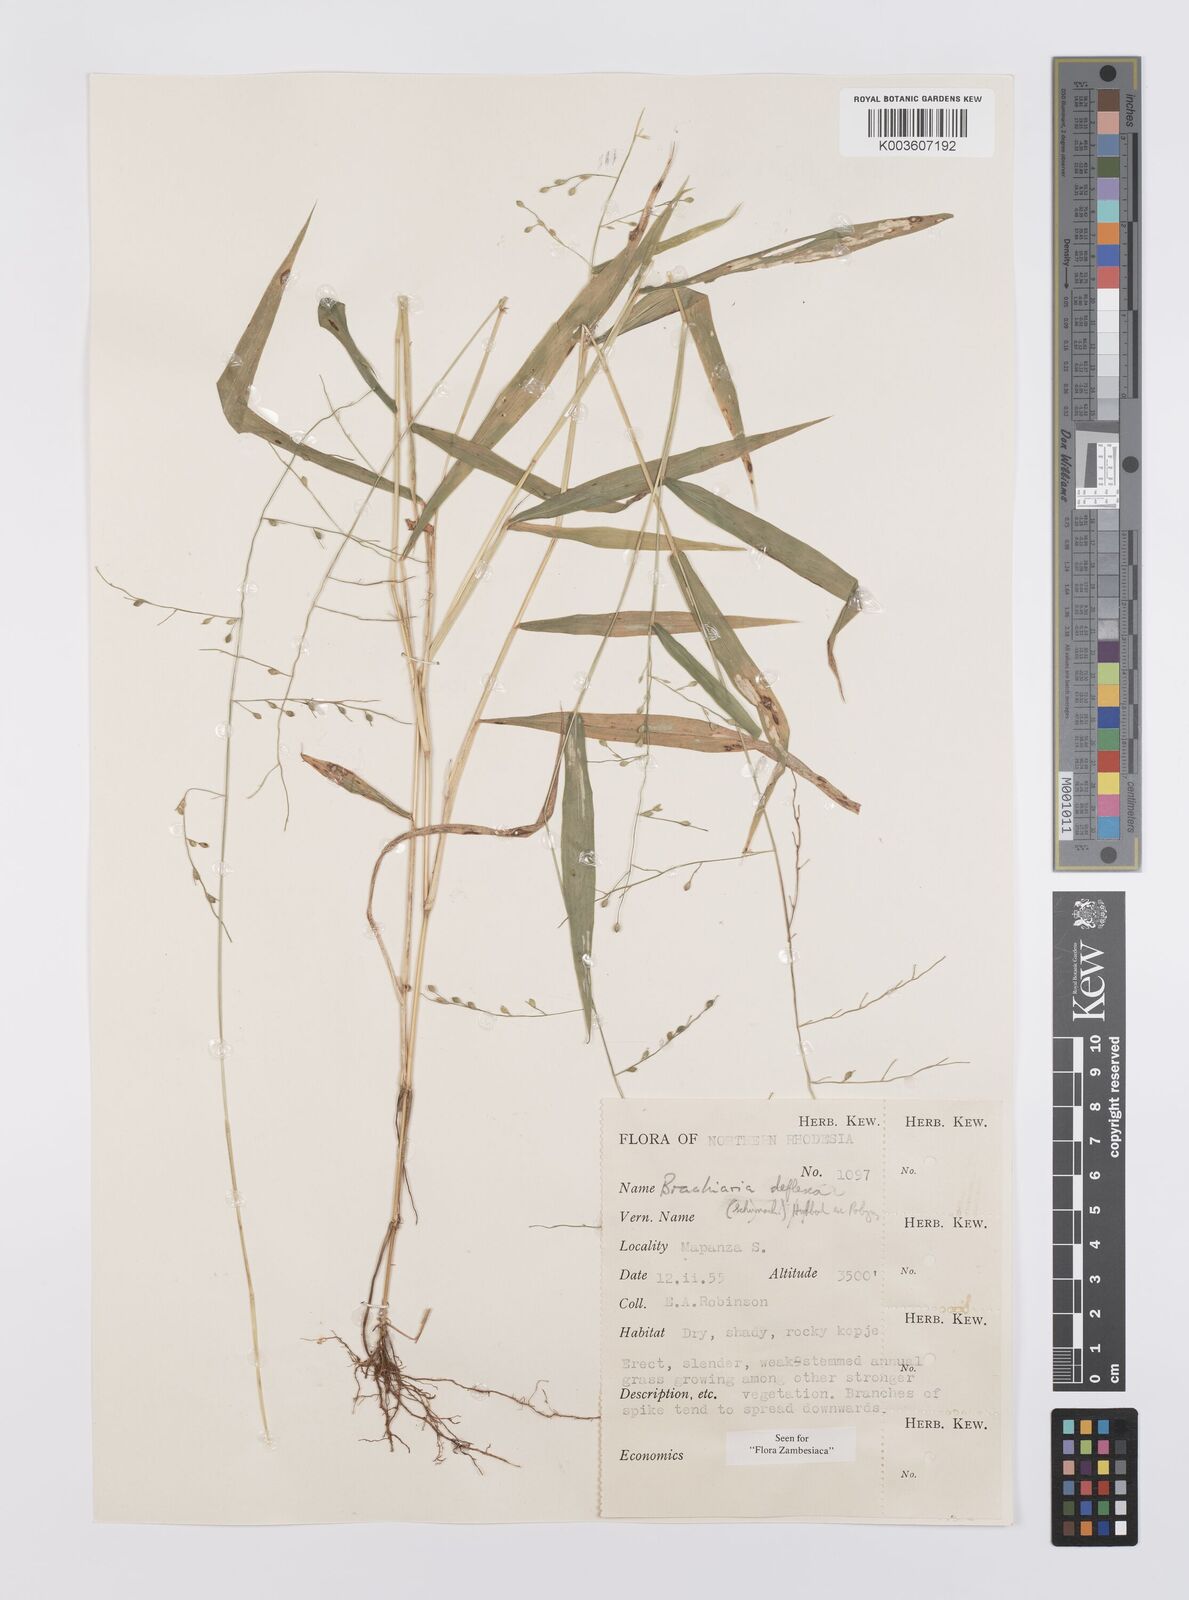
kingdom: Plantae
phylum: Tracheophyta
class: Liliopsida
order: Poales
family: Poaceae
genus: Urochloa
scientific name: Urochloa deflexa
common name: Guinea millet
